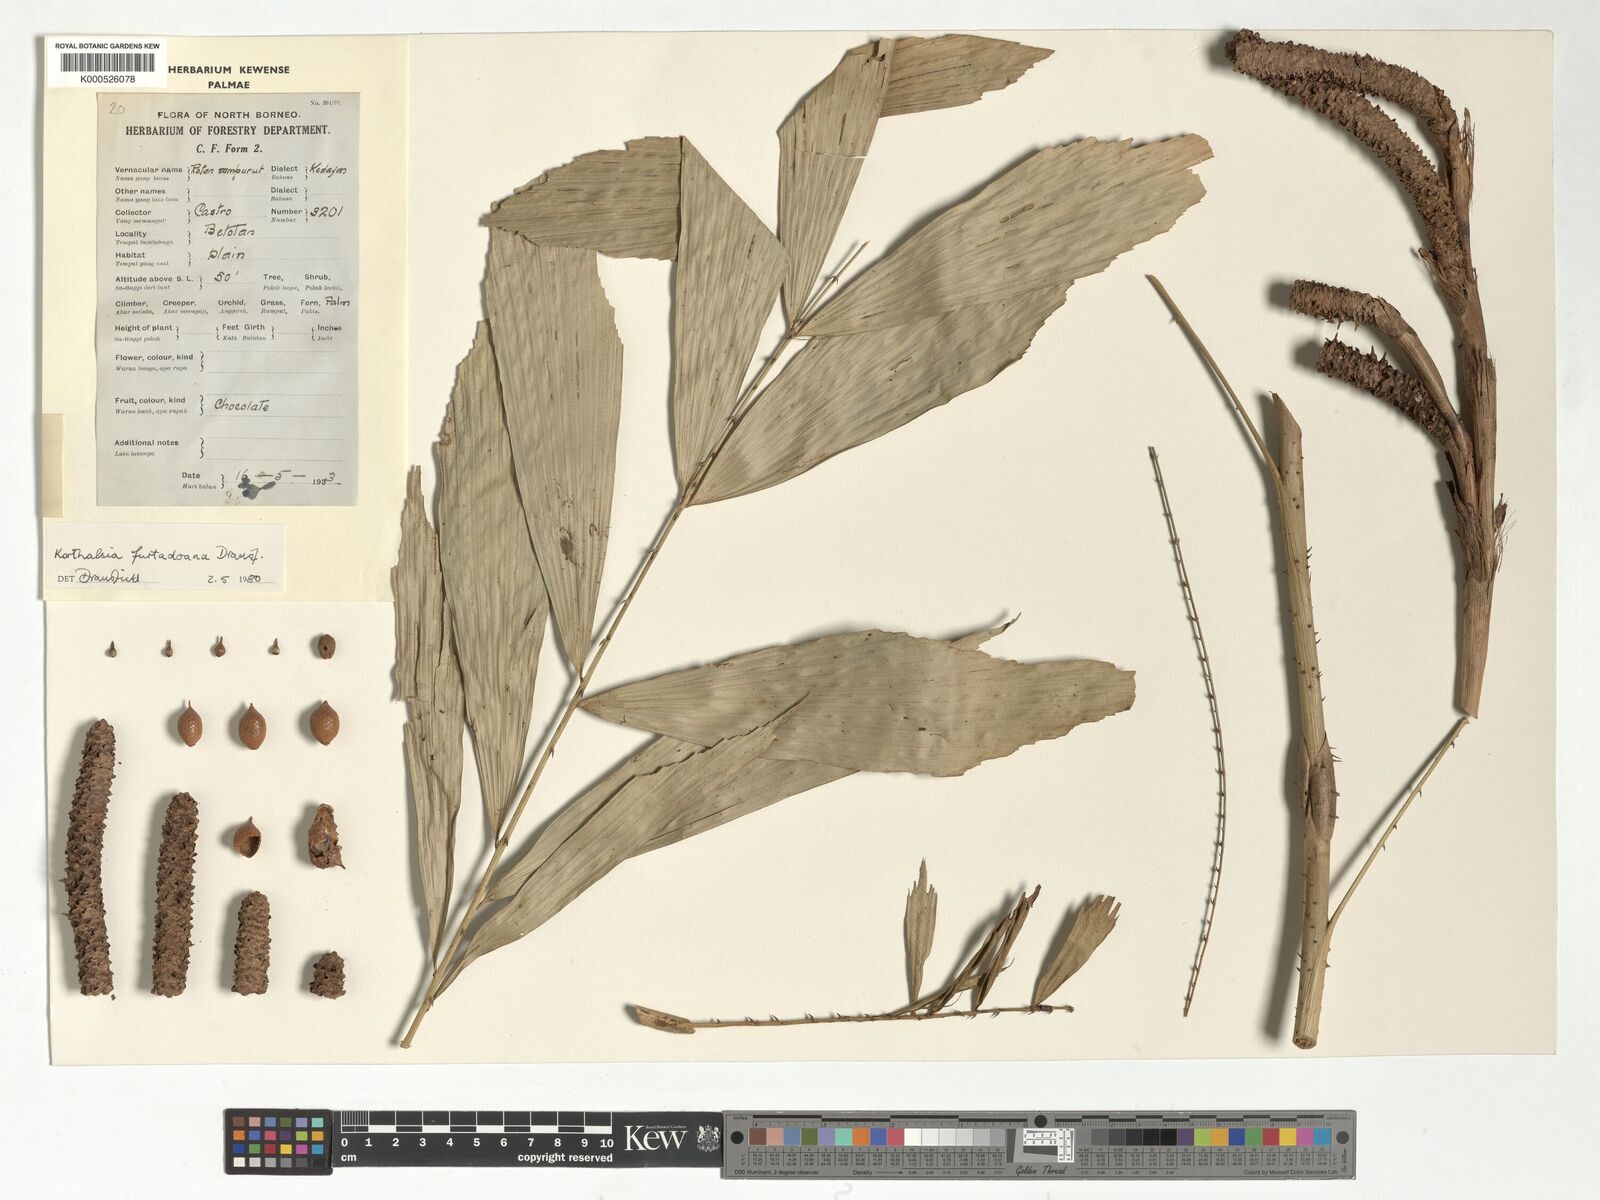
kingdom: Plantae
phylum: Tracheophyta
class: Liliopsida
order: Arecales
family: Arecaceae
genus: Korthalsia
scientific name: Korthalsia furtadoana
